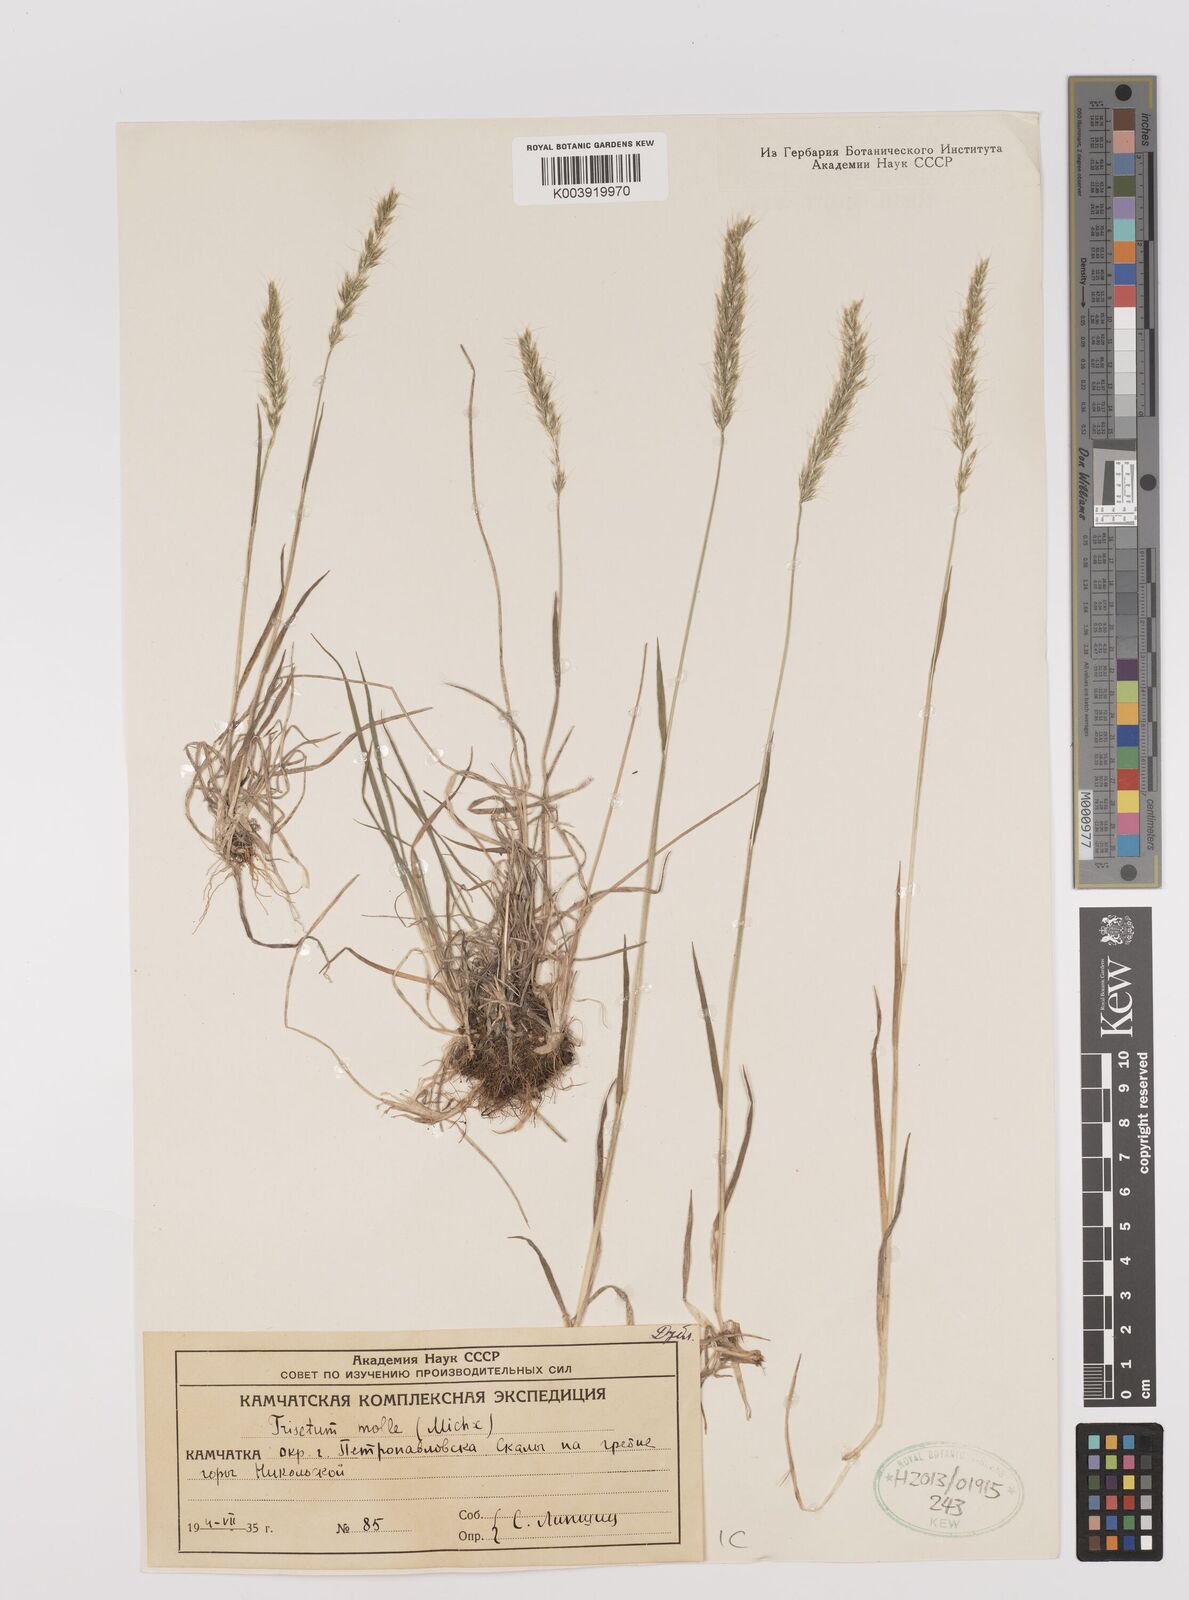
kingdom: Plantae
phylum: Tracheophyta
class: Liliopsida
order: Poales
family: Poaceae
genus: Koeleria
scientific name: Koeleria spicata
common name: Mountain trisetum
